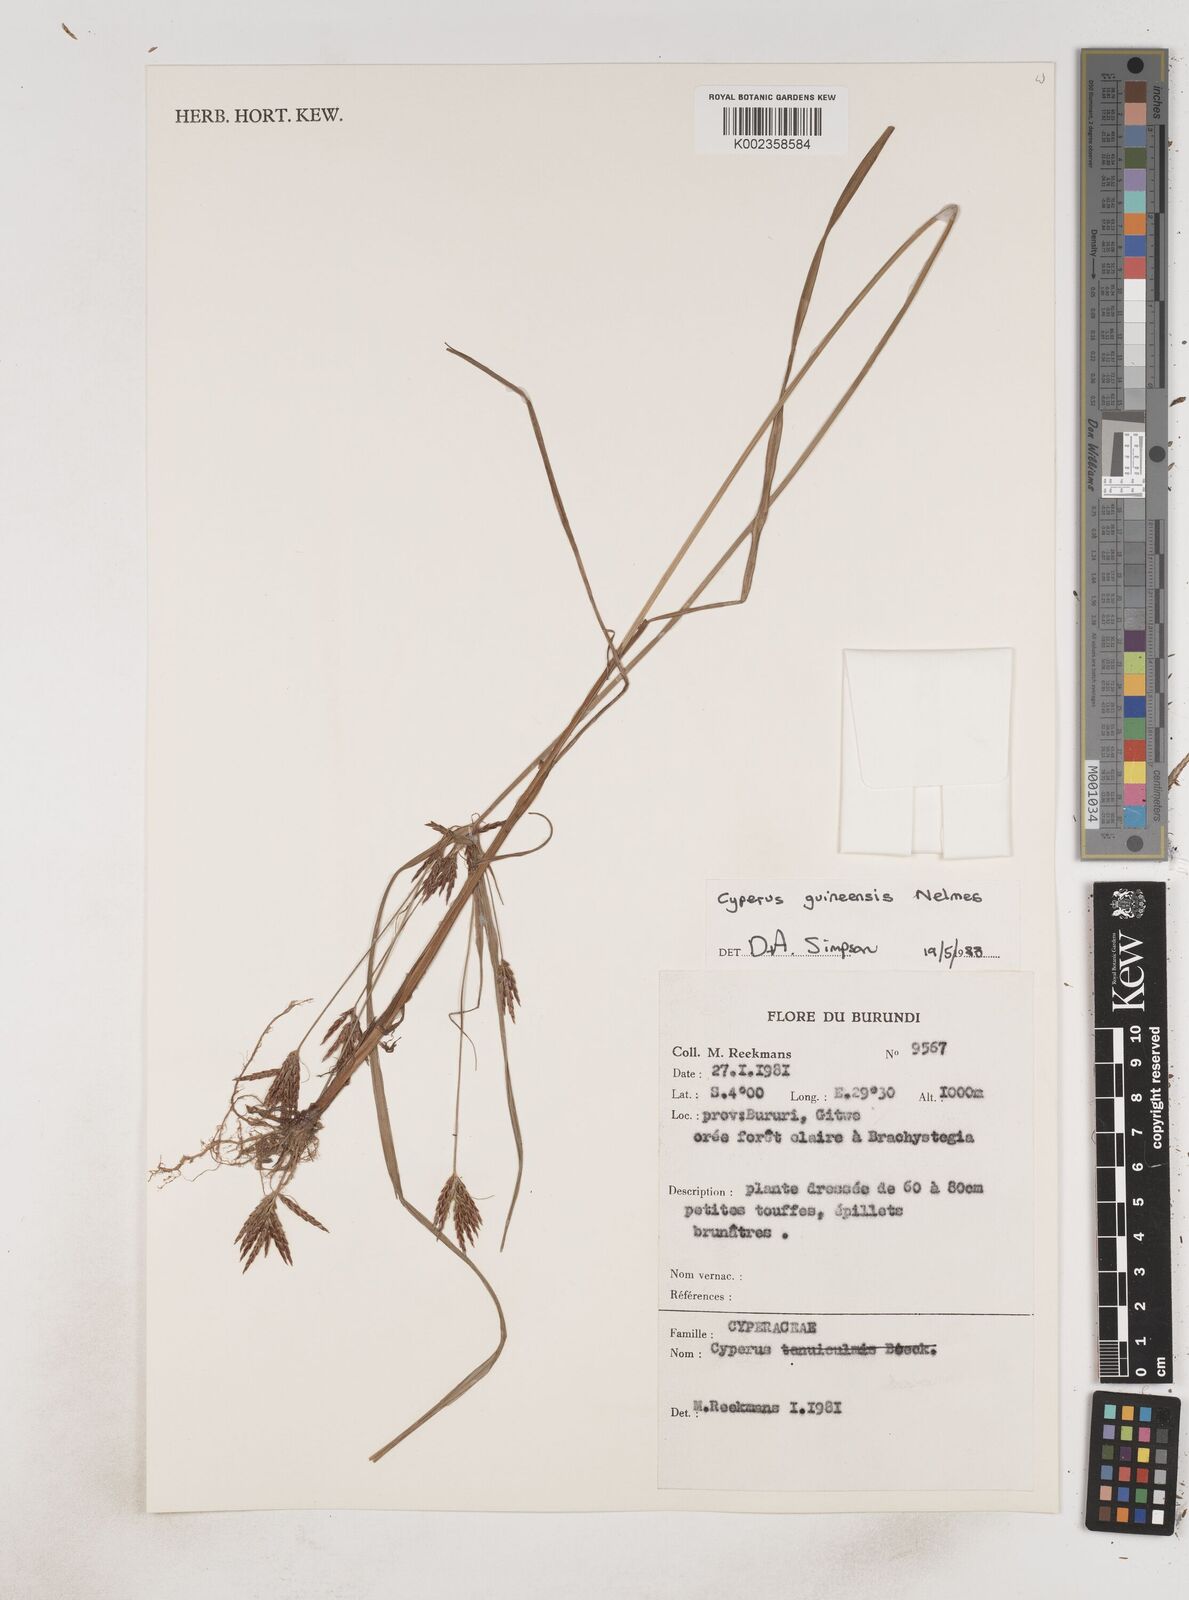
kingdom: Plantae
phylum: Tracheophyta
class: Liliopsida
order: Poales
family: Cyperaceae
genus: Cyperus
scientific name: Cyperus tenuiculmis
